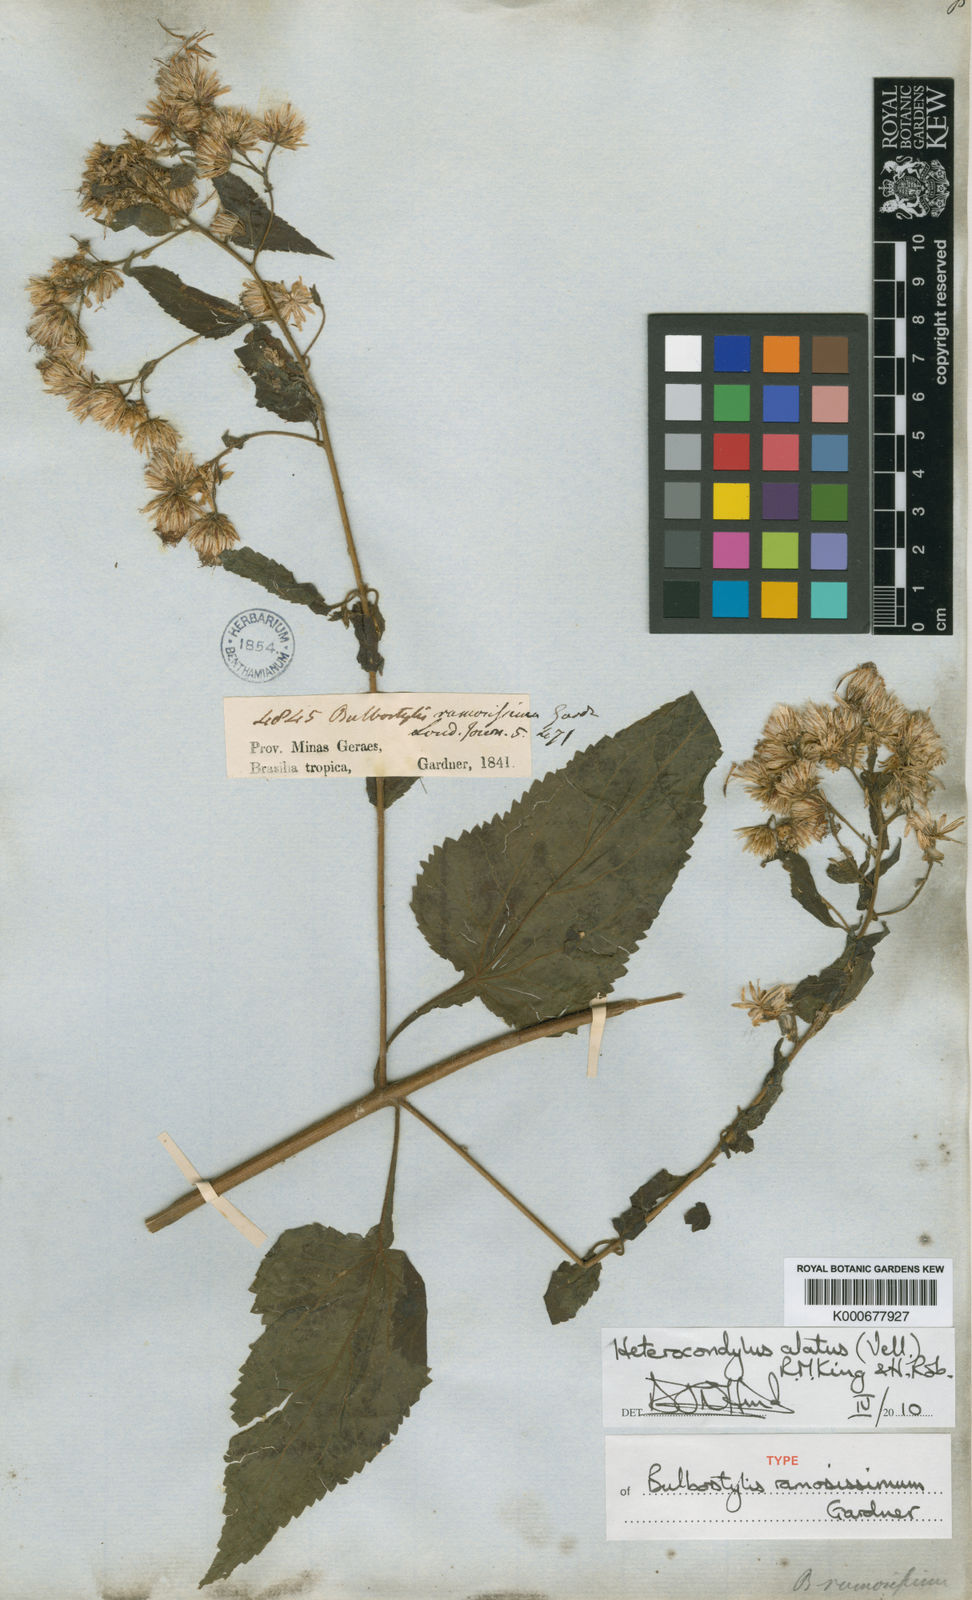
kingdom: Plantae
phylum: Tracheophyta
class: Magnoliopsida
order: Asterales
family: Asteraceae
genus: Heterocondylus
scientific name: Heterocondylus alatus
